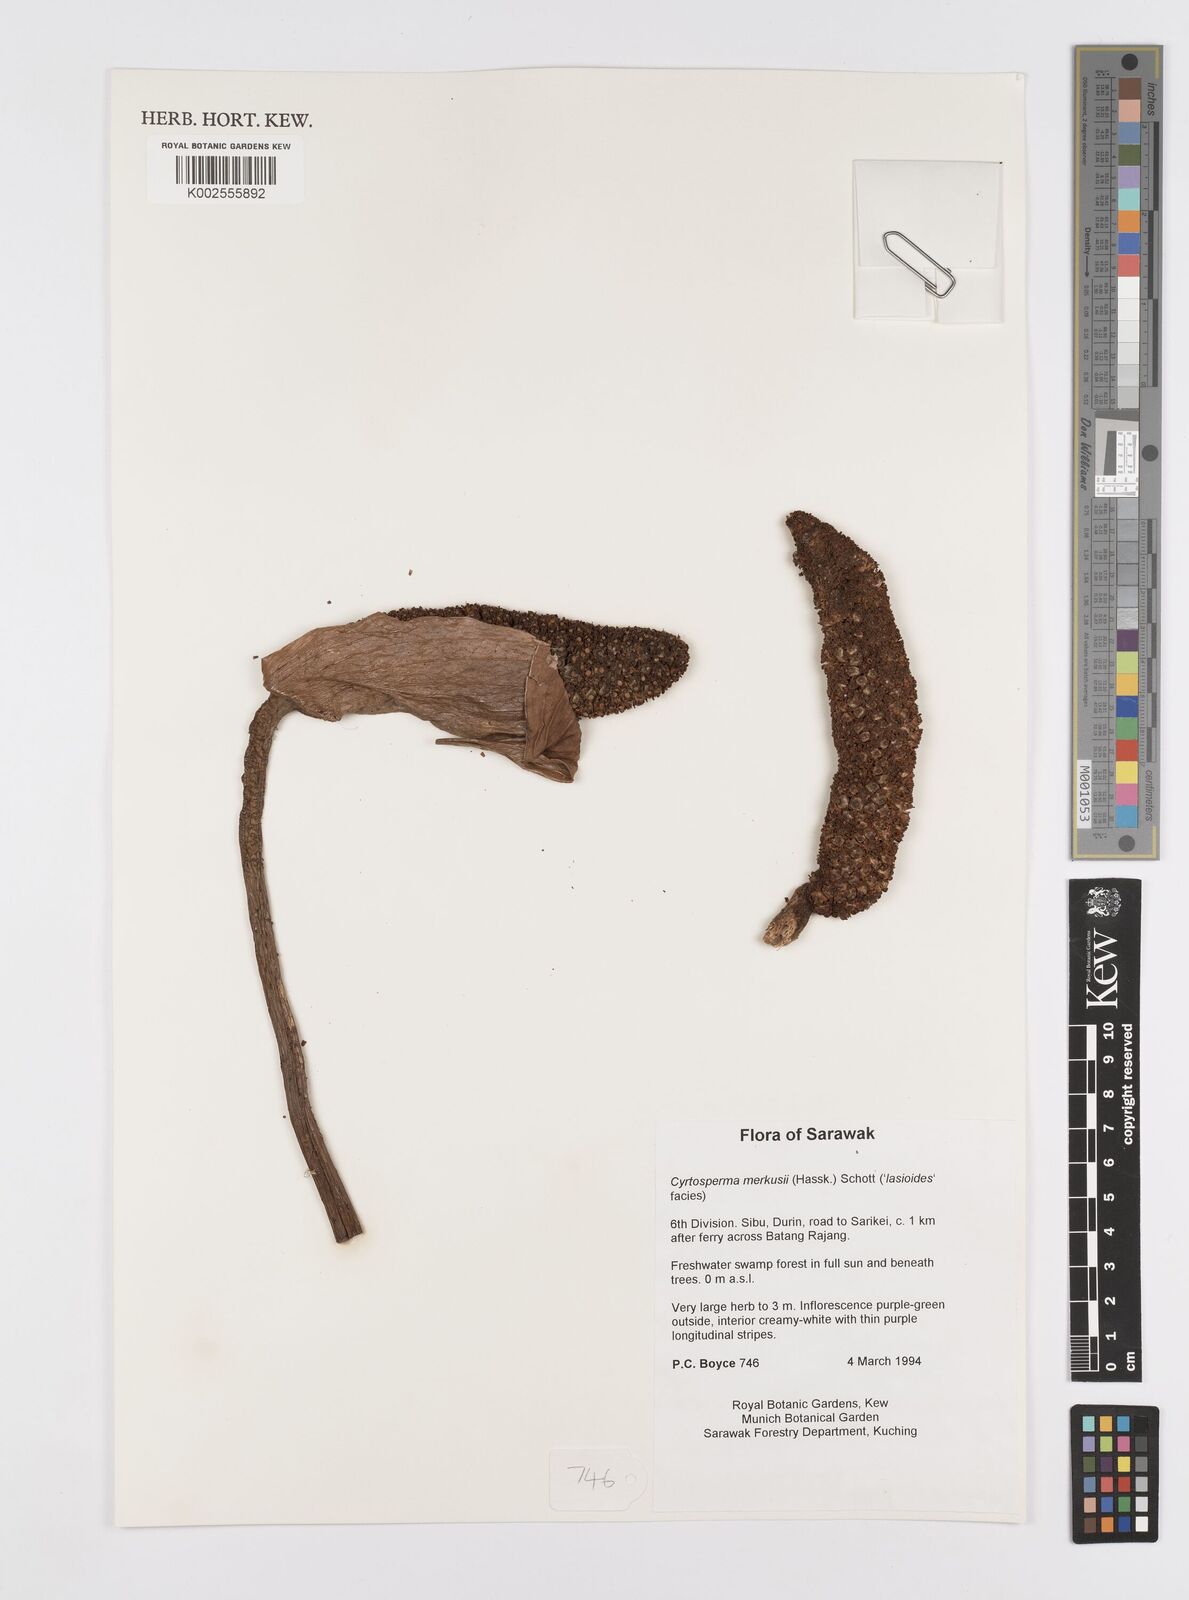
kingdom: Plantae
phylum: Tracheophyta
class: Liliopsida
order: Alismatales
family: Araceae
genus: Cyrtosperma
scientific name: Cyrtosperma merkusii
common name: Giant swamp-taro
